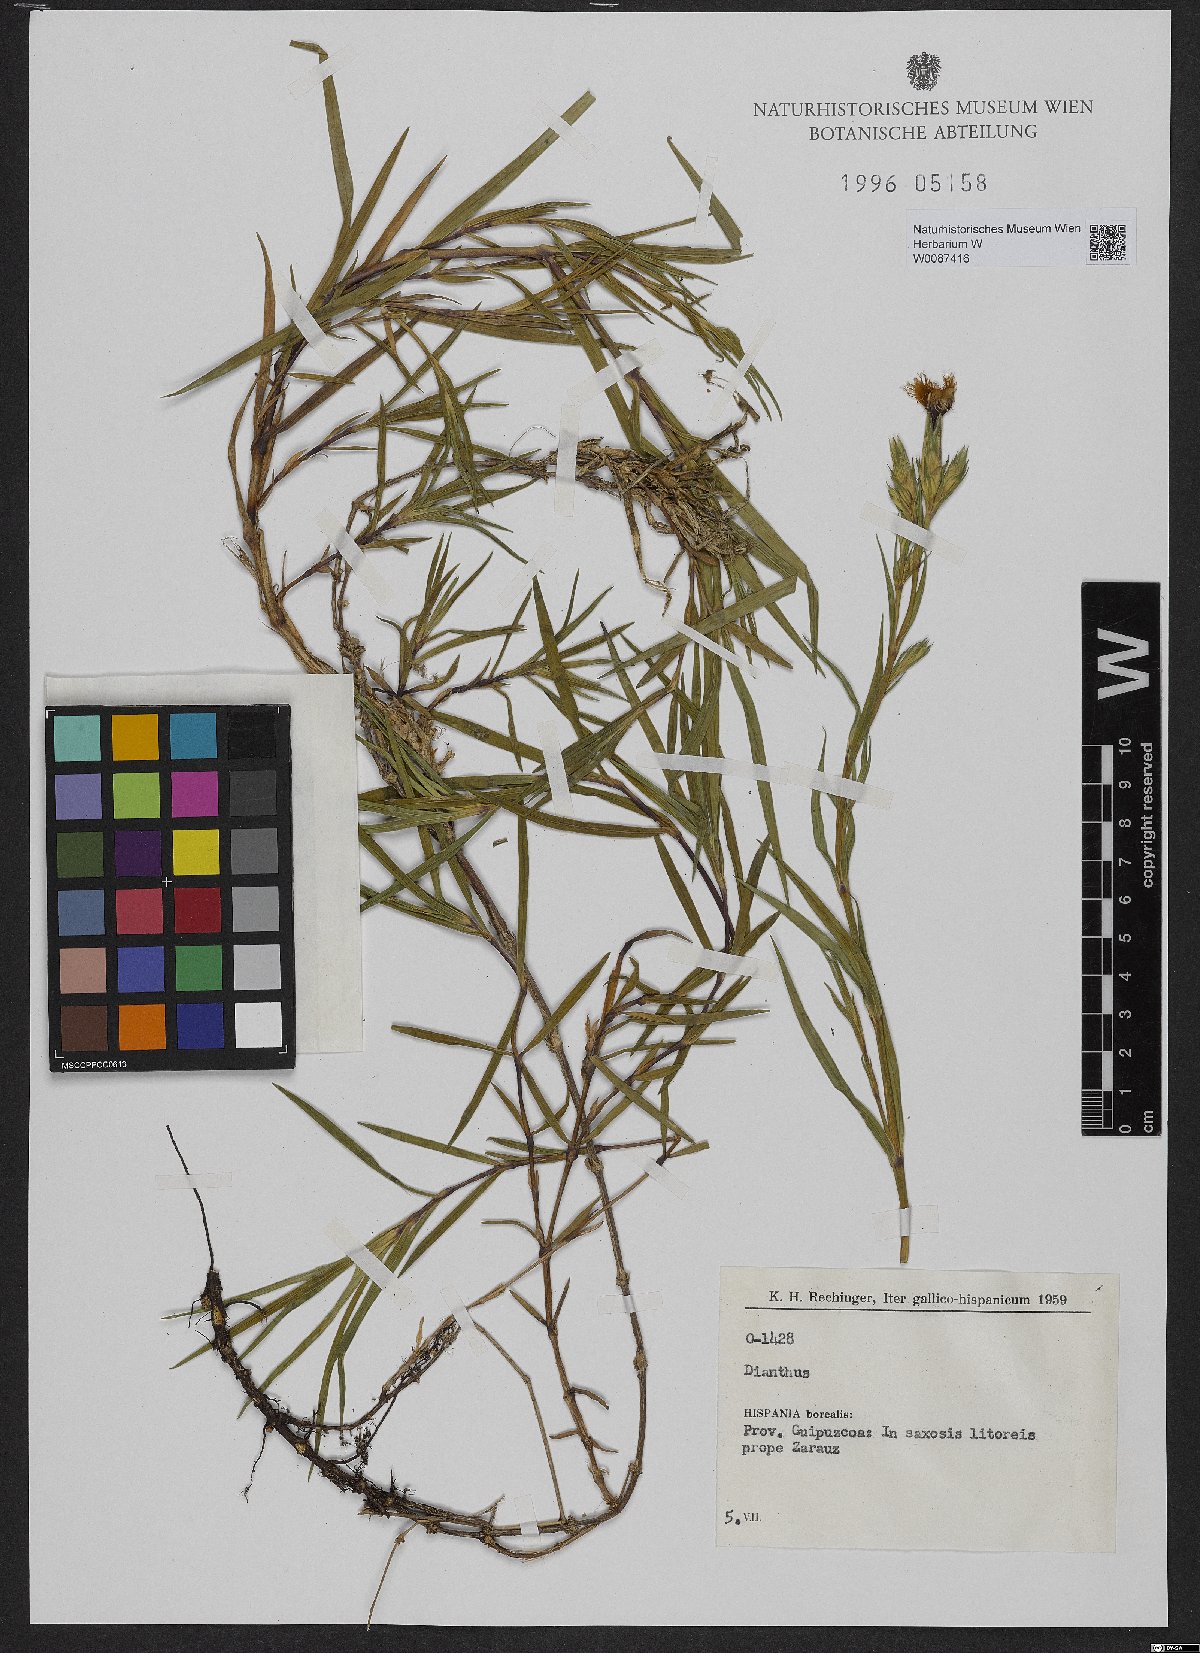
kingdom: Plantae
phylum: Tracheophyta
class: Magnoliopsida
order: Caryophyllales
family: Caryophyllaceae
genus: Dianthus
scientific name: Dianthus
